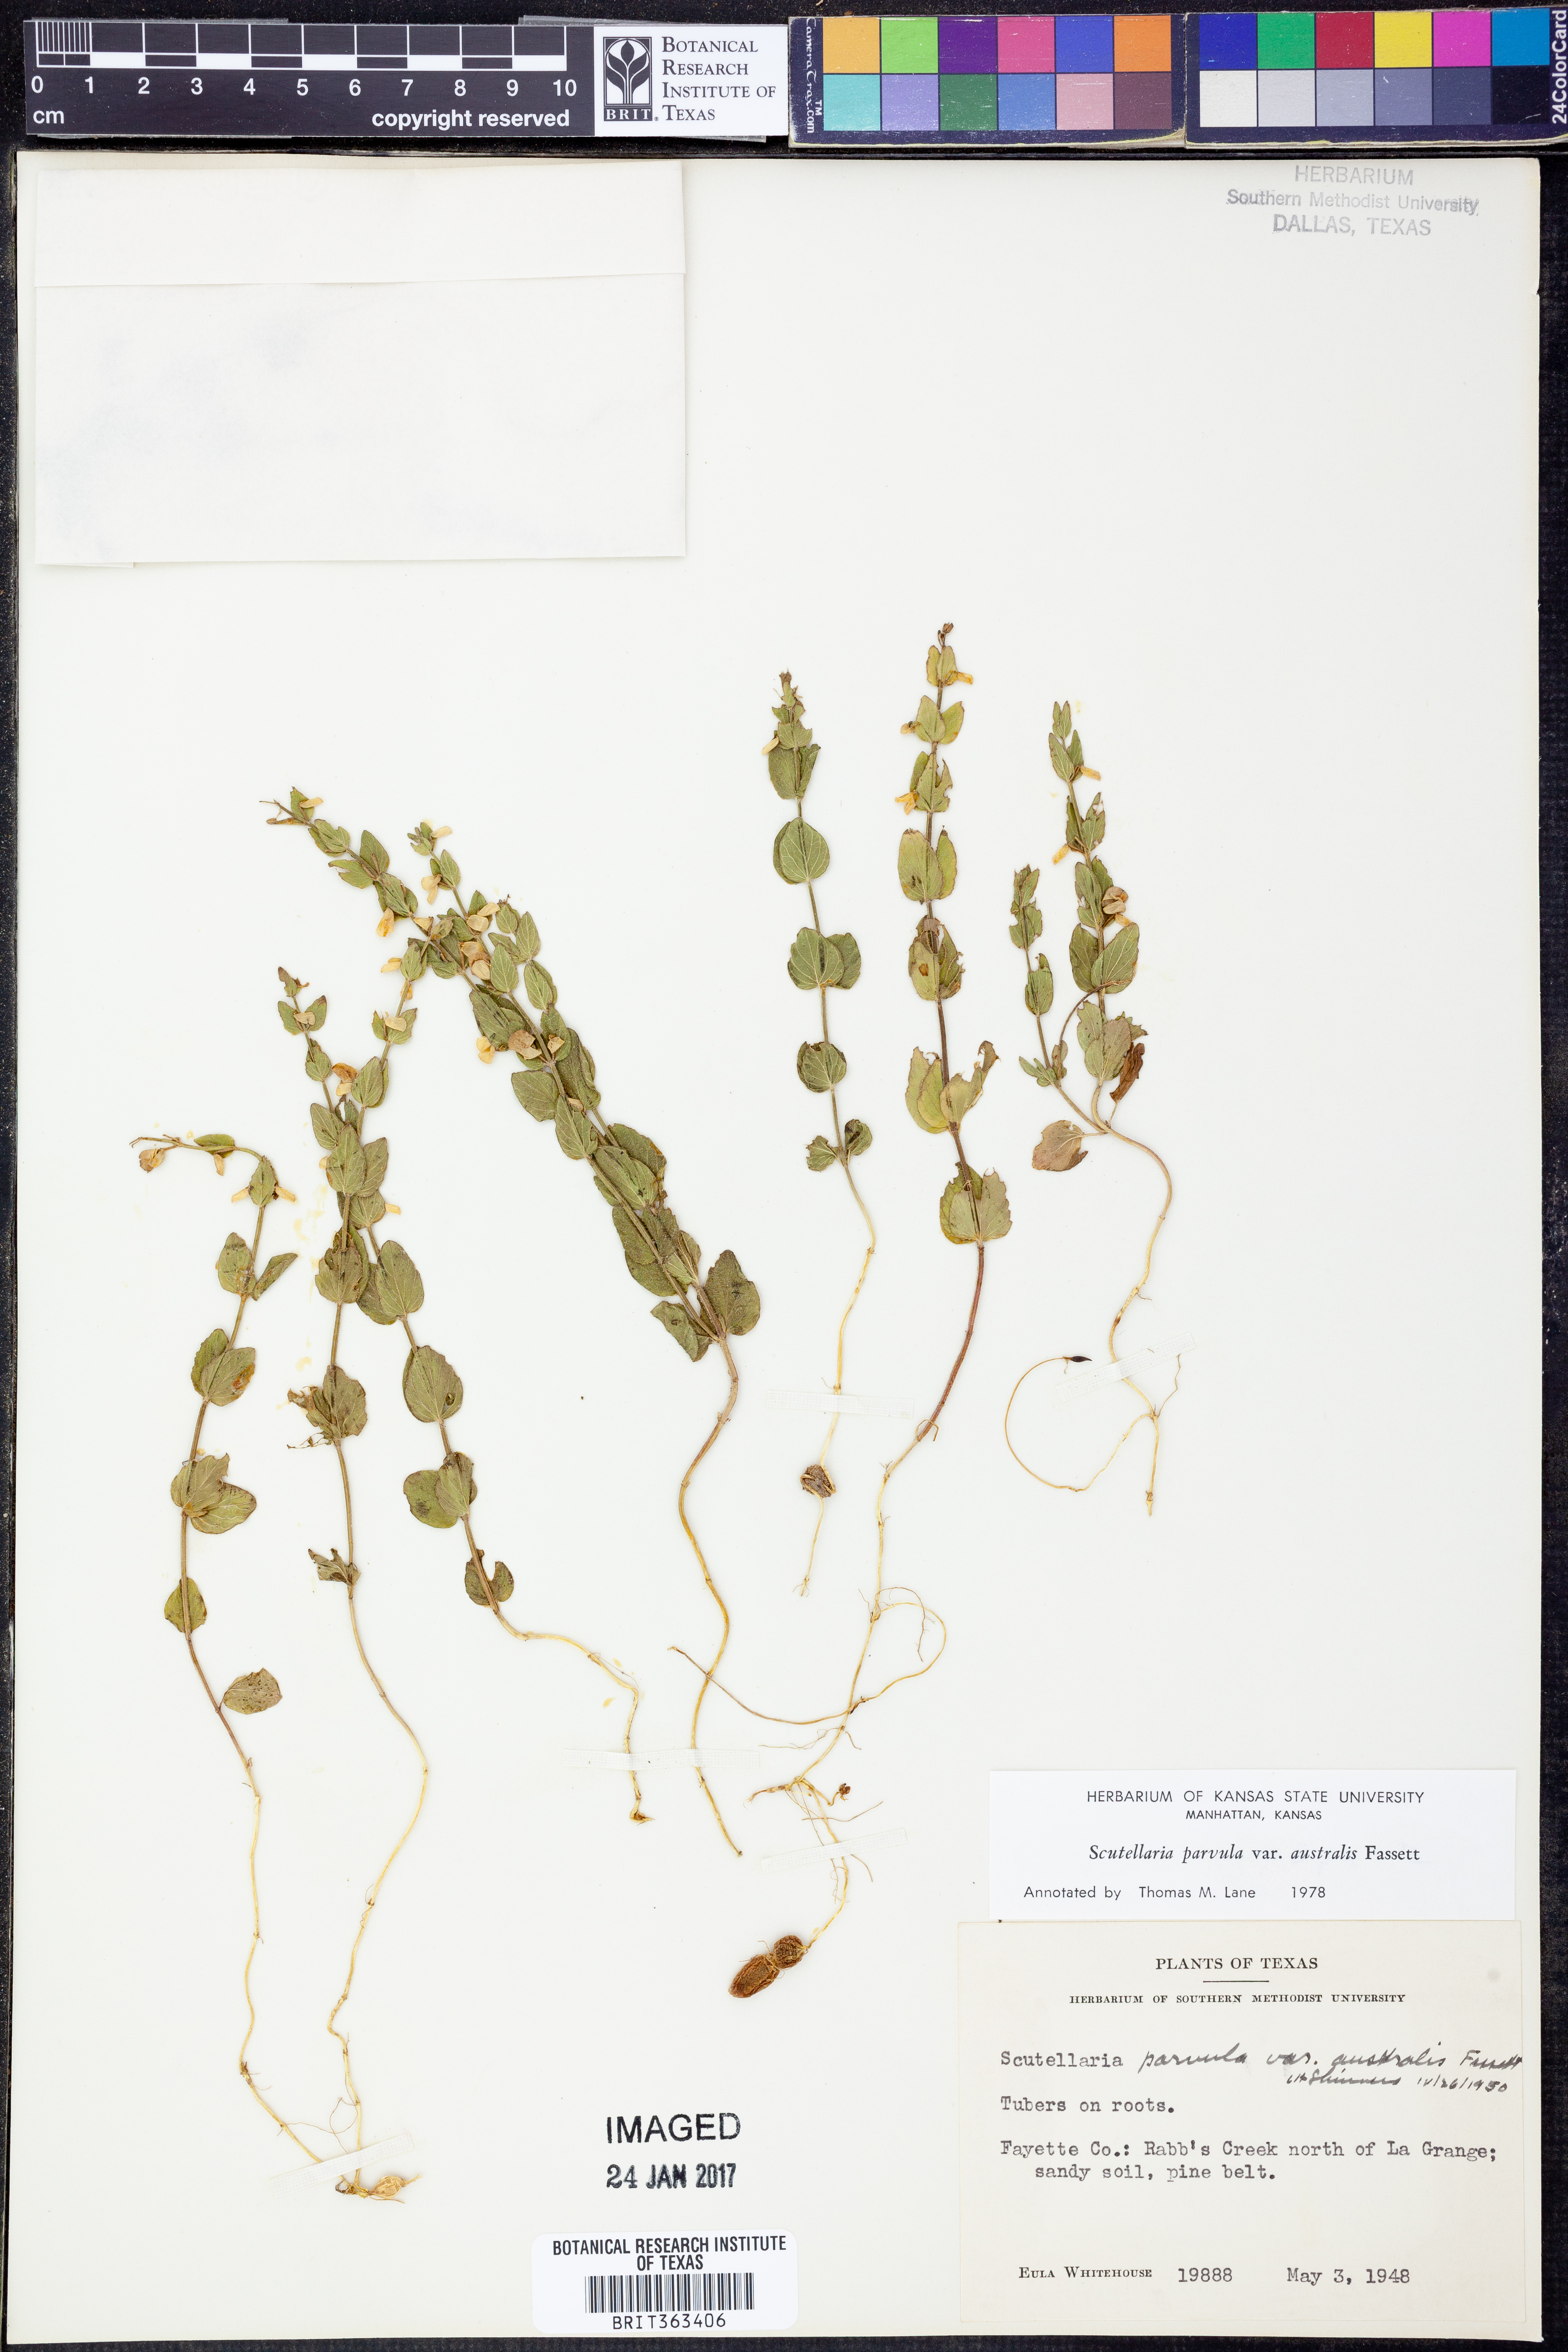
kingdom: Plantae
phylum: Tracheophyta
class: Magnoliopsida
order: Lamiales
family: Lamiaceae
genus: Scutellaria
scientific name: Scutellaria parvula
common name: Little scullcap
